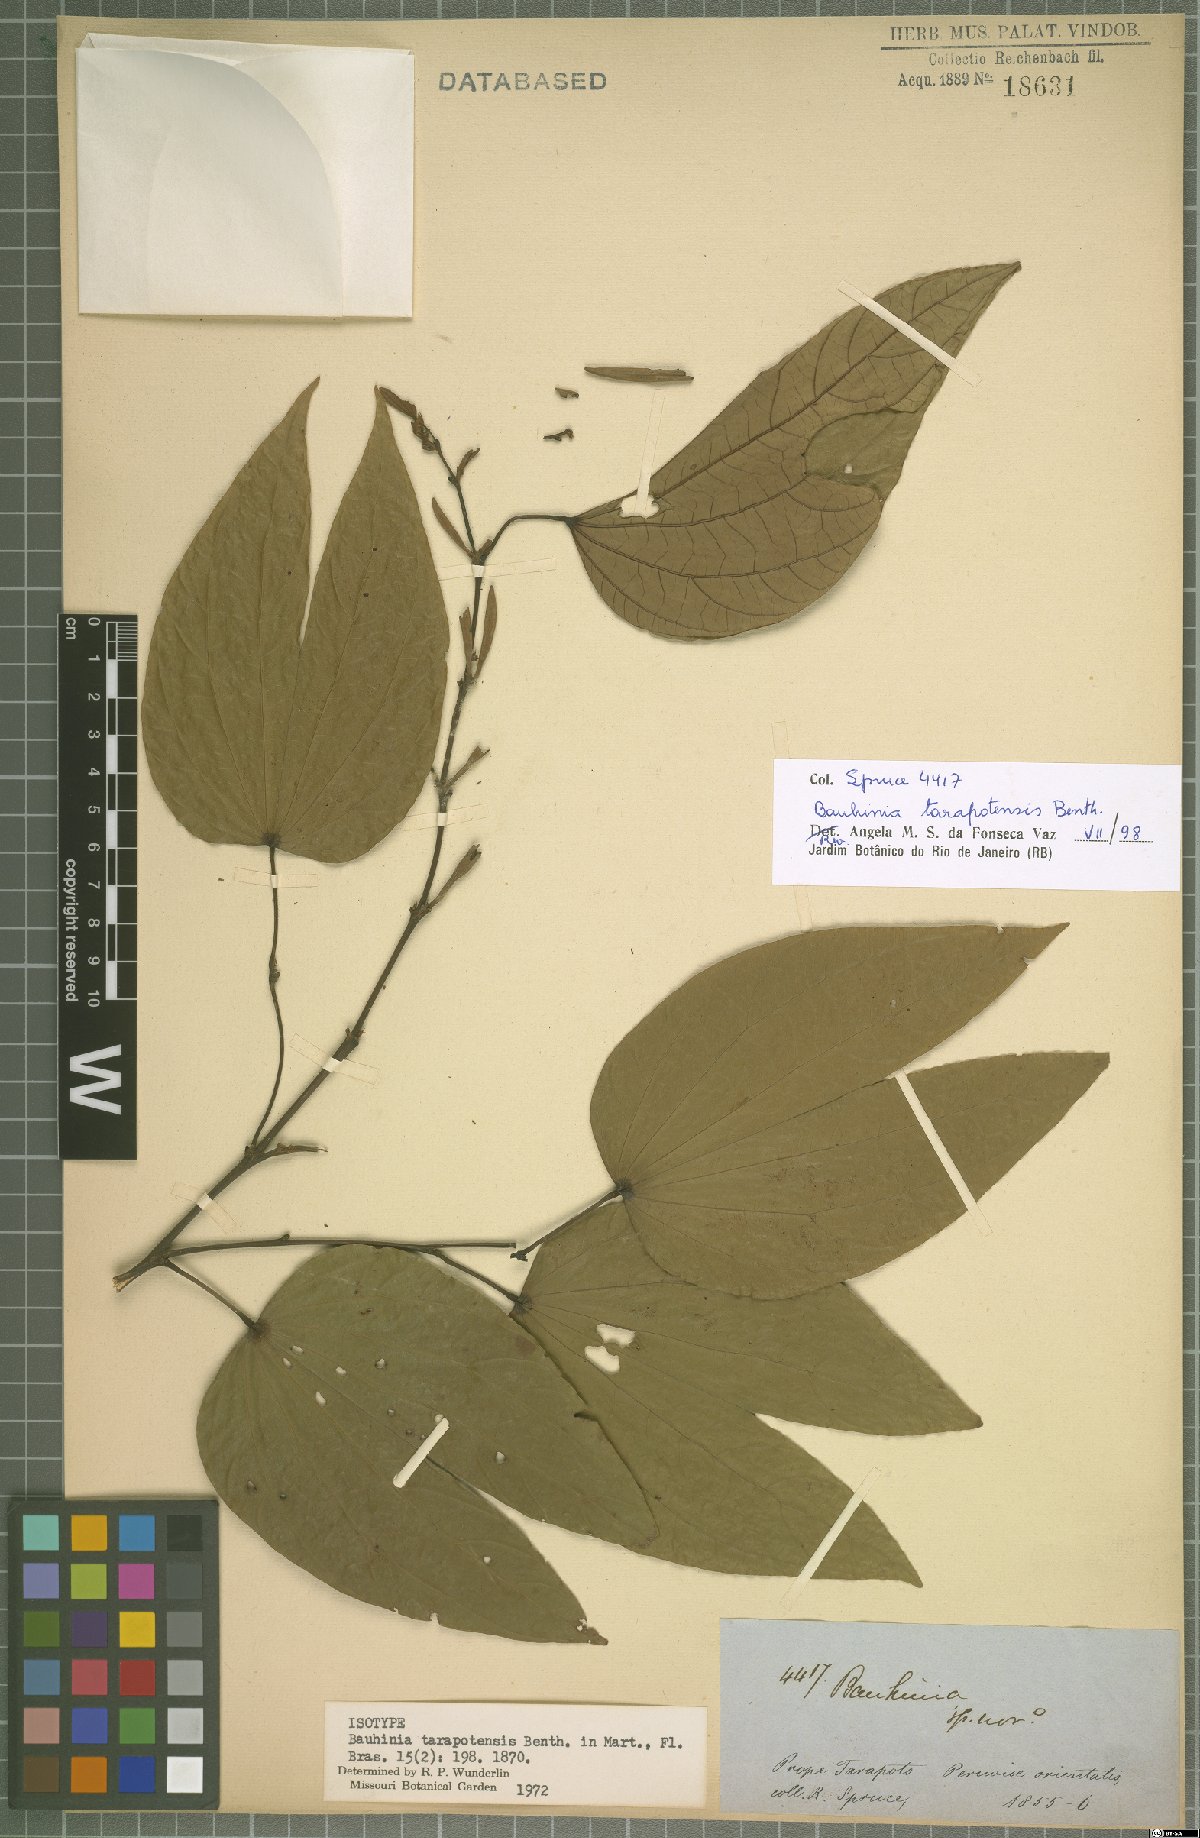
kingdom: Plantae
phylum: Tracheophyta
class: Magnoliopsida
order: Fabales
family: Fabaceae
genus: Bauhinia
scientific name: Bauhinia tarapotensis
